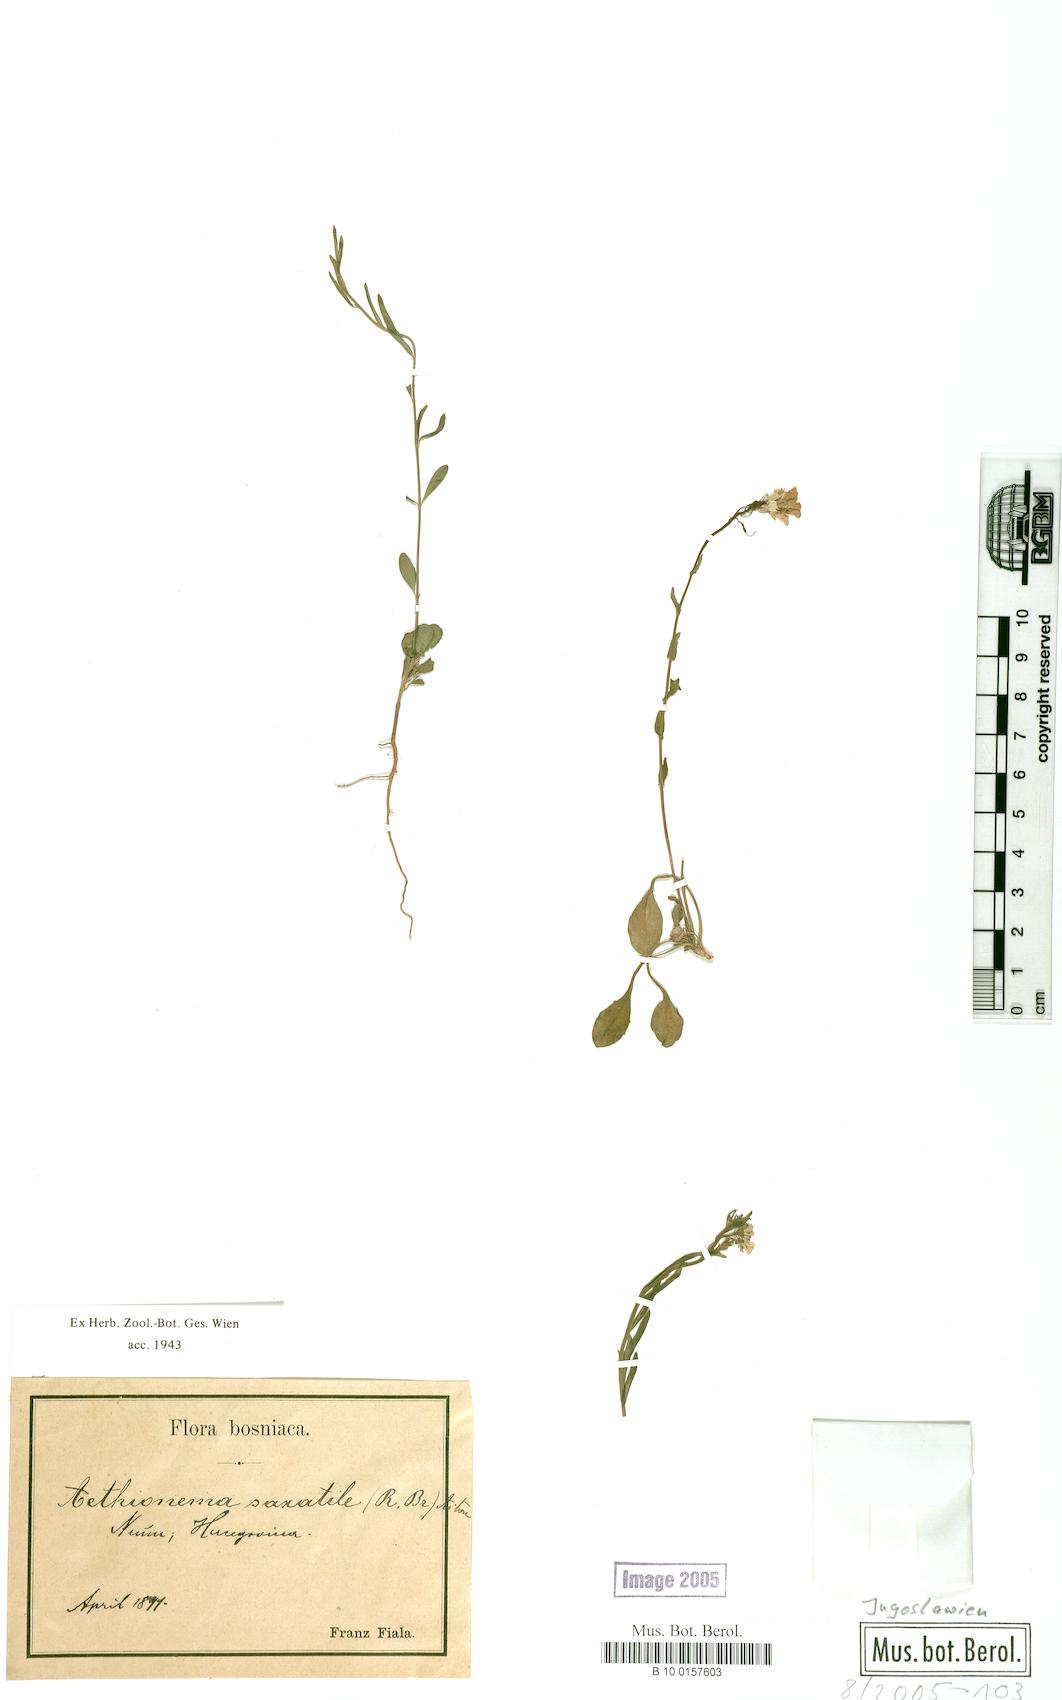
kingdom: Plantae
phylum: Tracheophyta
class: Magnoliopsida
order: Brassicales
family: Brassicaceae
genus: Aethionema
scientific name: Aethionema saxatile
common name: Burnt candytuft
